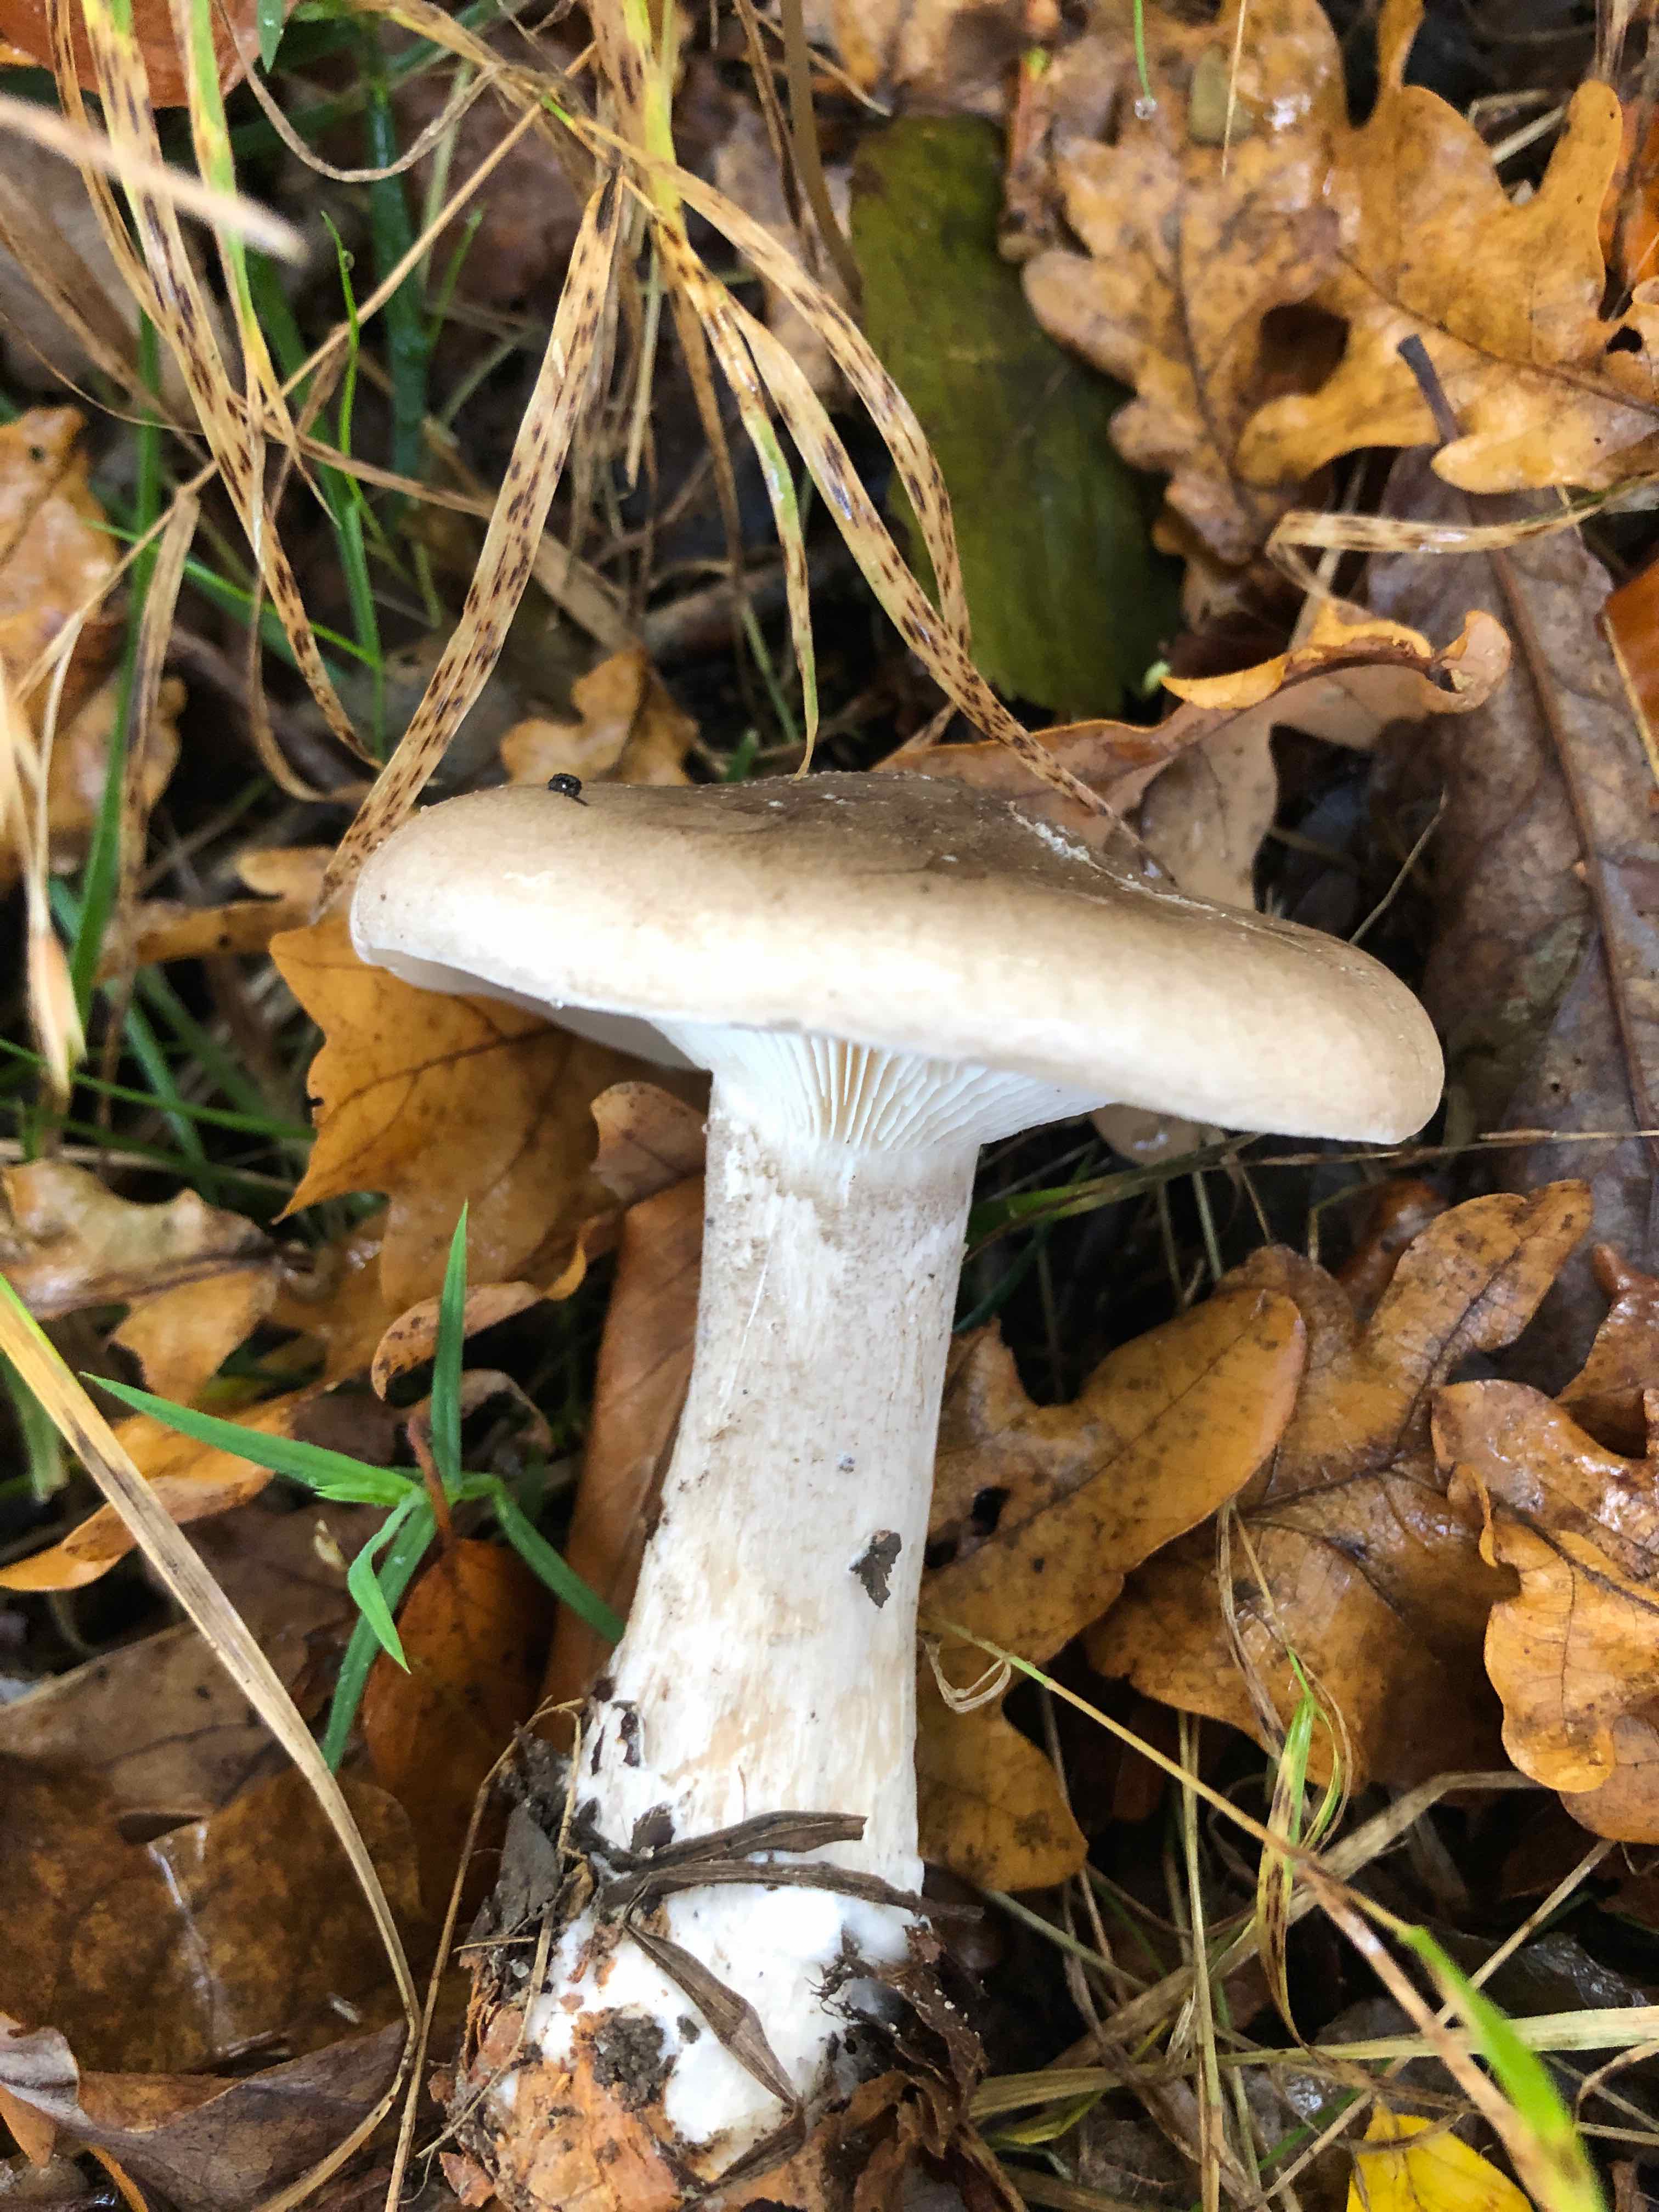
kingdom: Fungi
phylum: Basidiomycota
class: Agaricomycetes
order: Agaricales
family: Tricholomataceae
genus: Clitocybe
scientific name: Clitocybe nebularis
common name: tåge-tragthat
